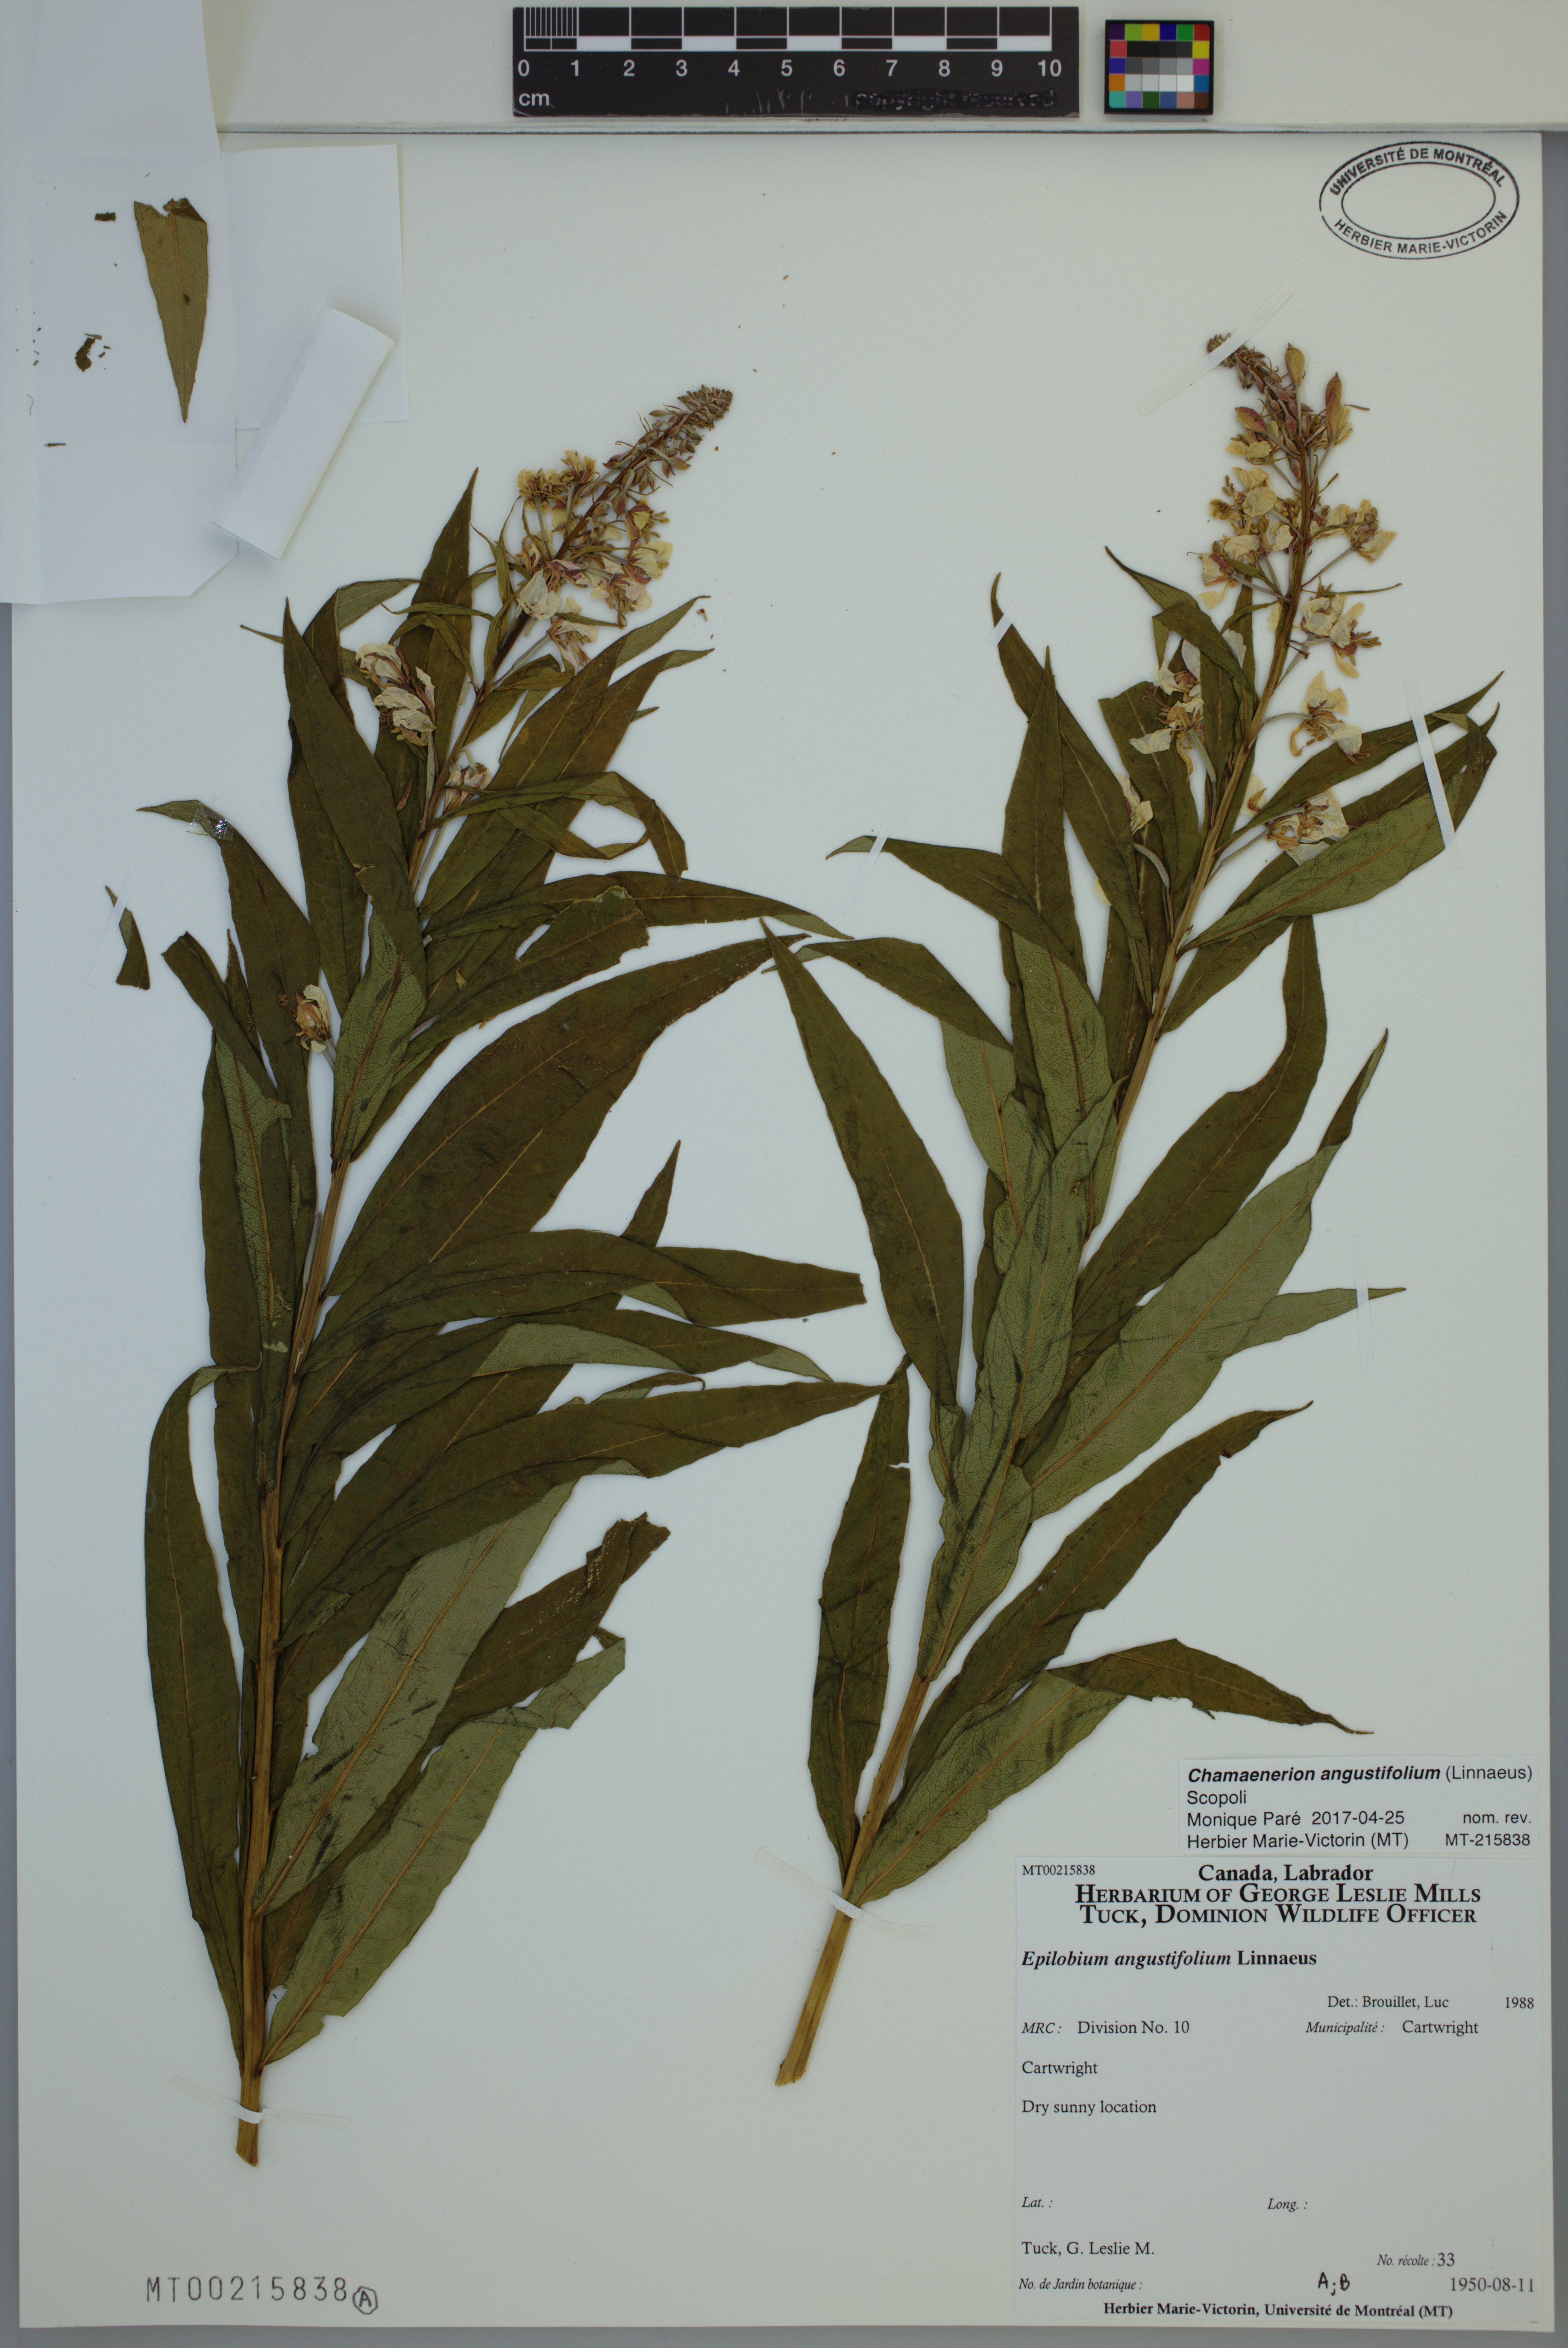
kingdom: Plantae
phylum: Tracheophyta
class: Magnoliopsida
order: Myrtales
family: Onagraceae
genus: Chamaenerion
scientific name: Chamaenerion angustifolium
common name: Fireweed
